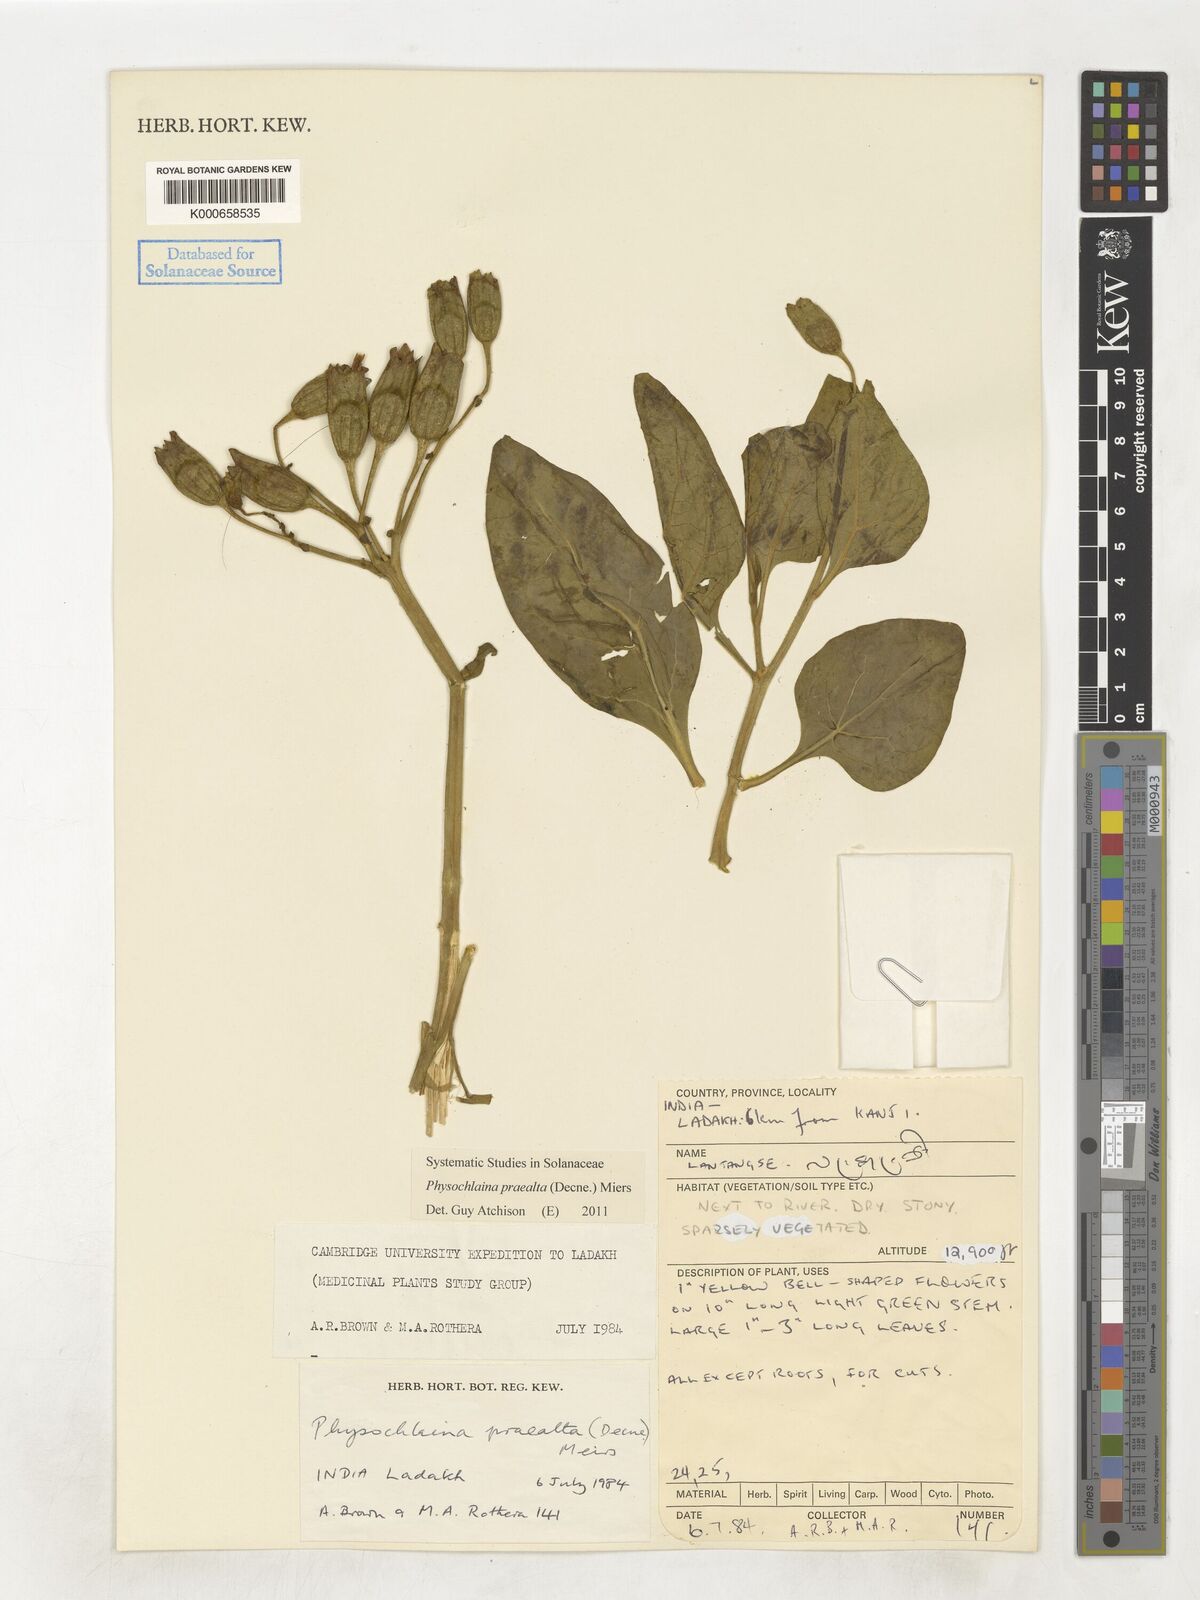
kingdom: Plantae
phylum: Tracheophyta
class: Magnoliopsida
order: Solanales
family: Solanaceae
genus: Physochlaina
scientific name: Physochlaina praealta
